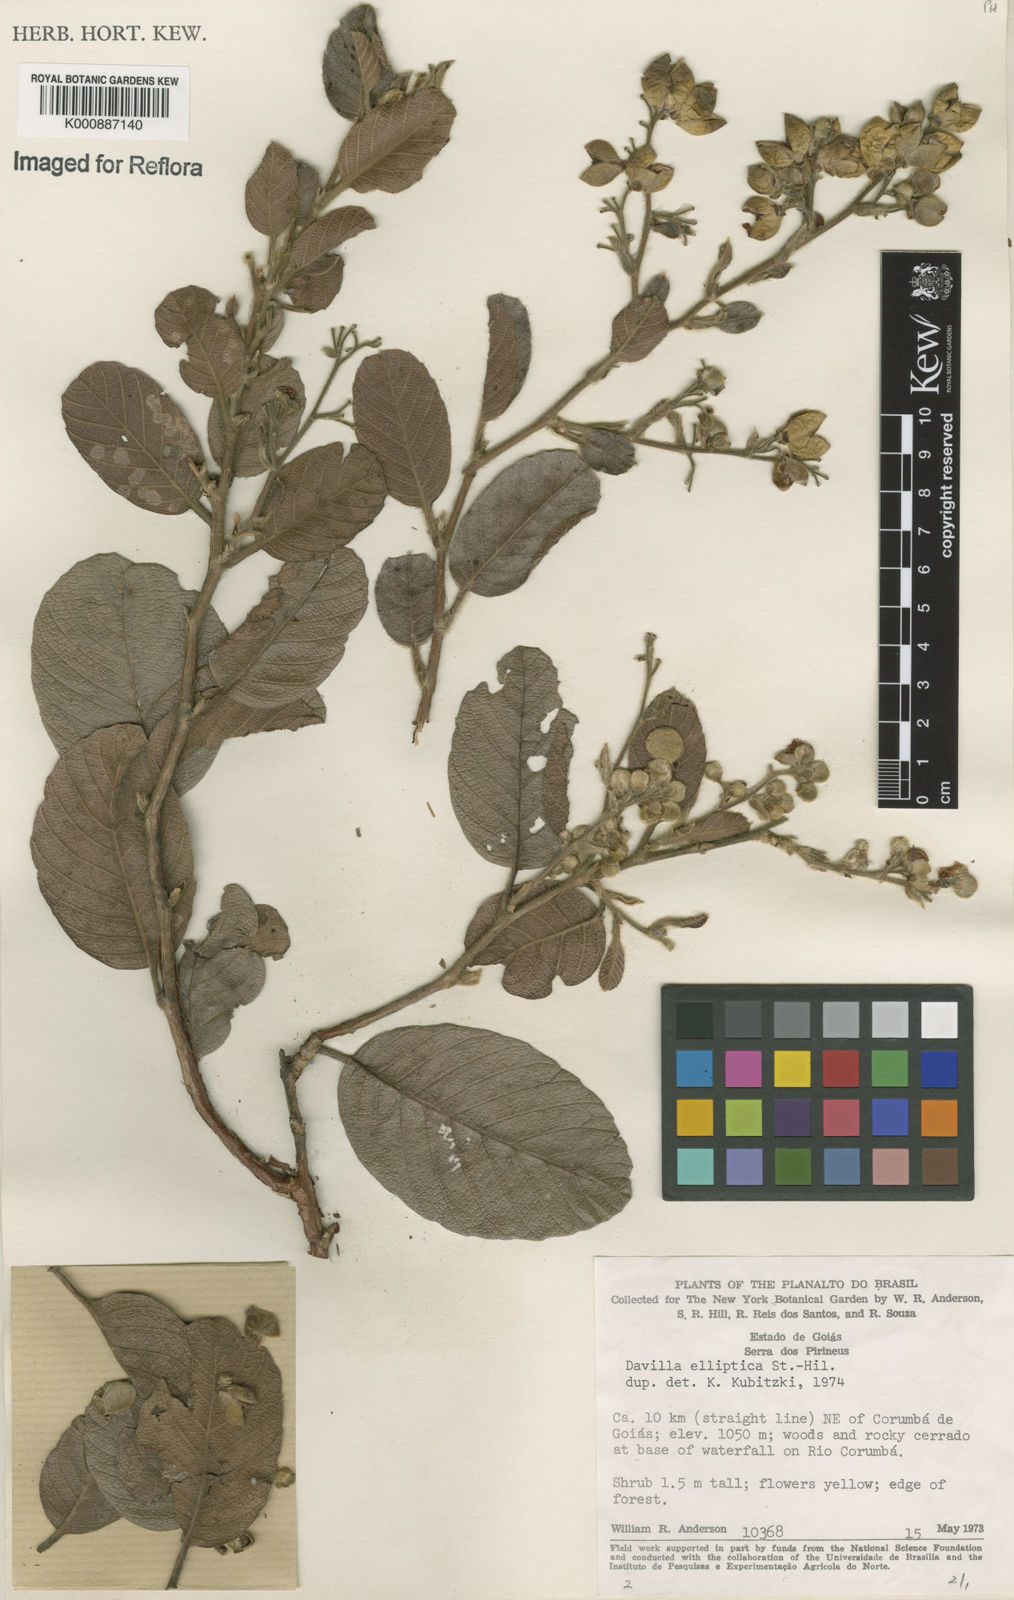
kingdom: Plantae
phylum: Tracheophyta
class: Magnoliopsida
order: Dilleniales
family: Dilleniaceae
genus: Davilla
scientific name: Davilla elliptica
